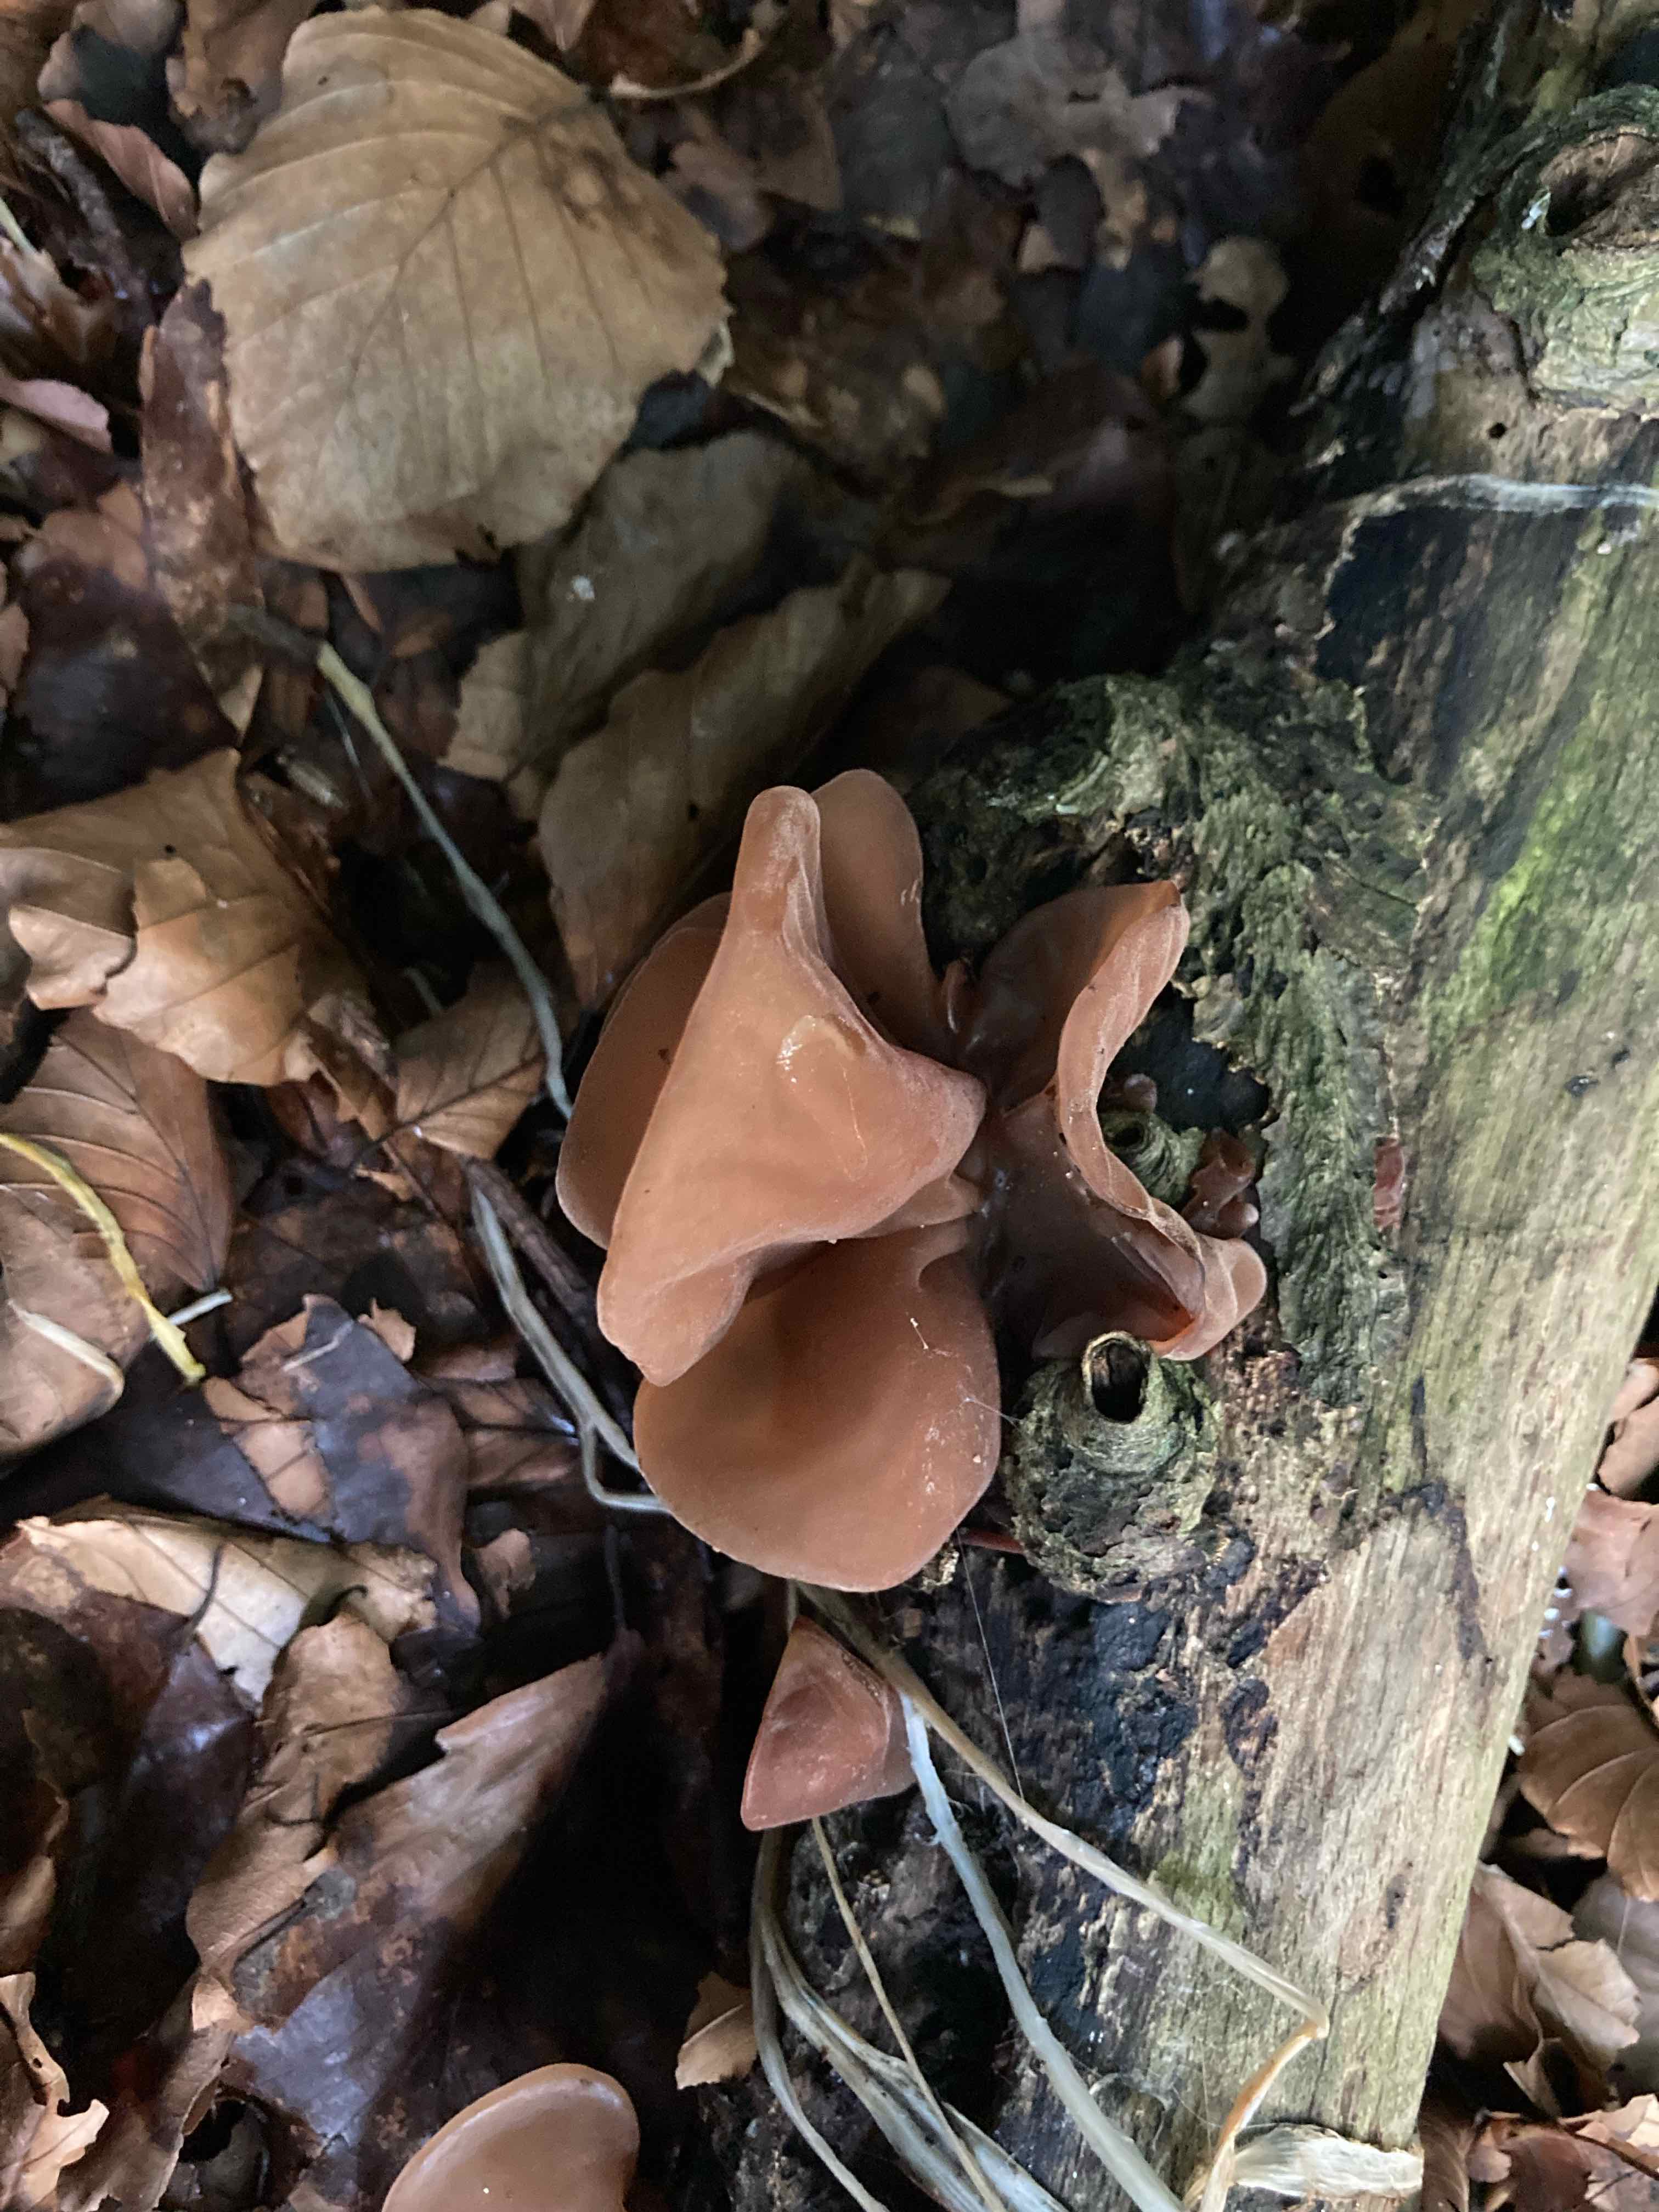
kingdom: Fungi
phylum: Basidiomycota
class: Agaricomycetes
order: Auriculariales
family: Auriculariaceae
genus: Auricularia
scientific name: Auricularia auricula-judae
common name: almindelig judasøre
